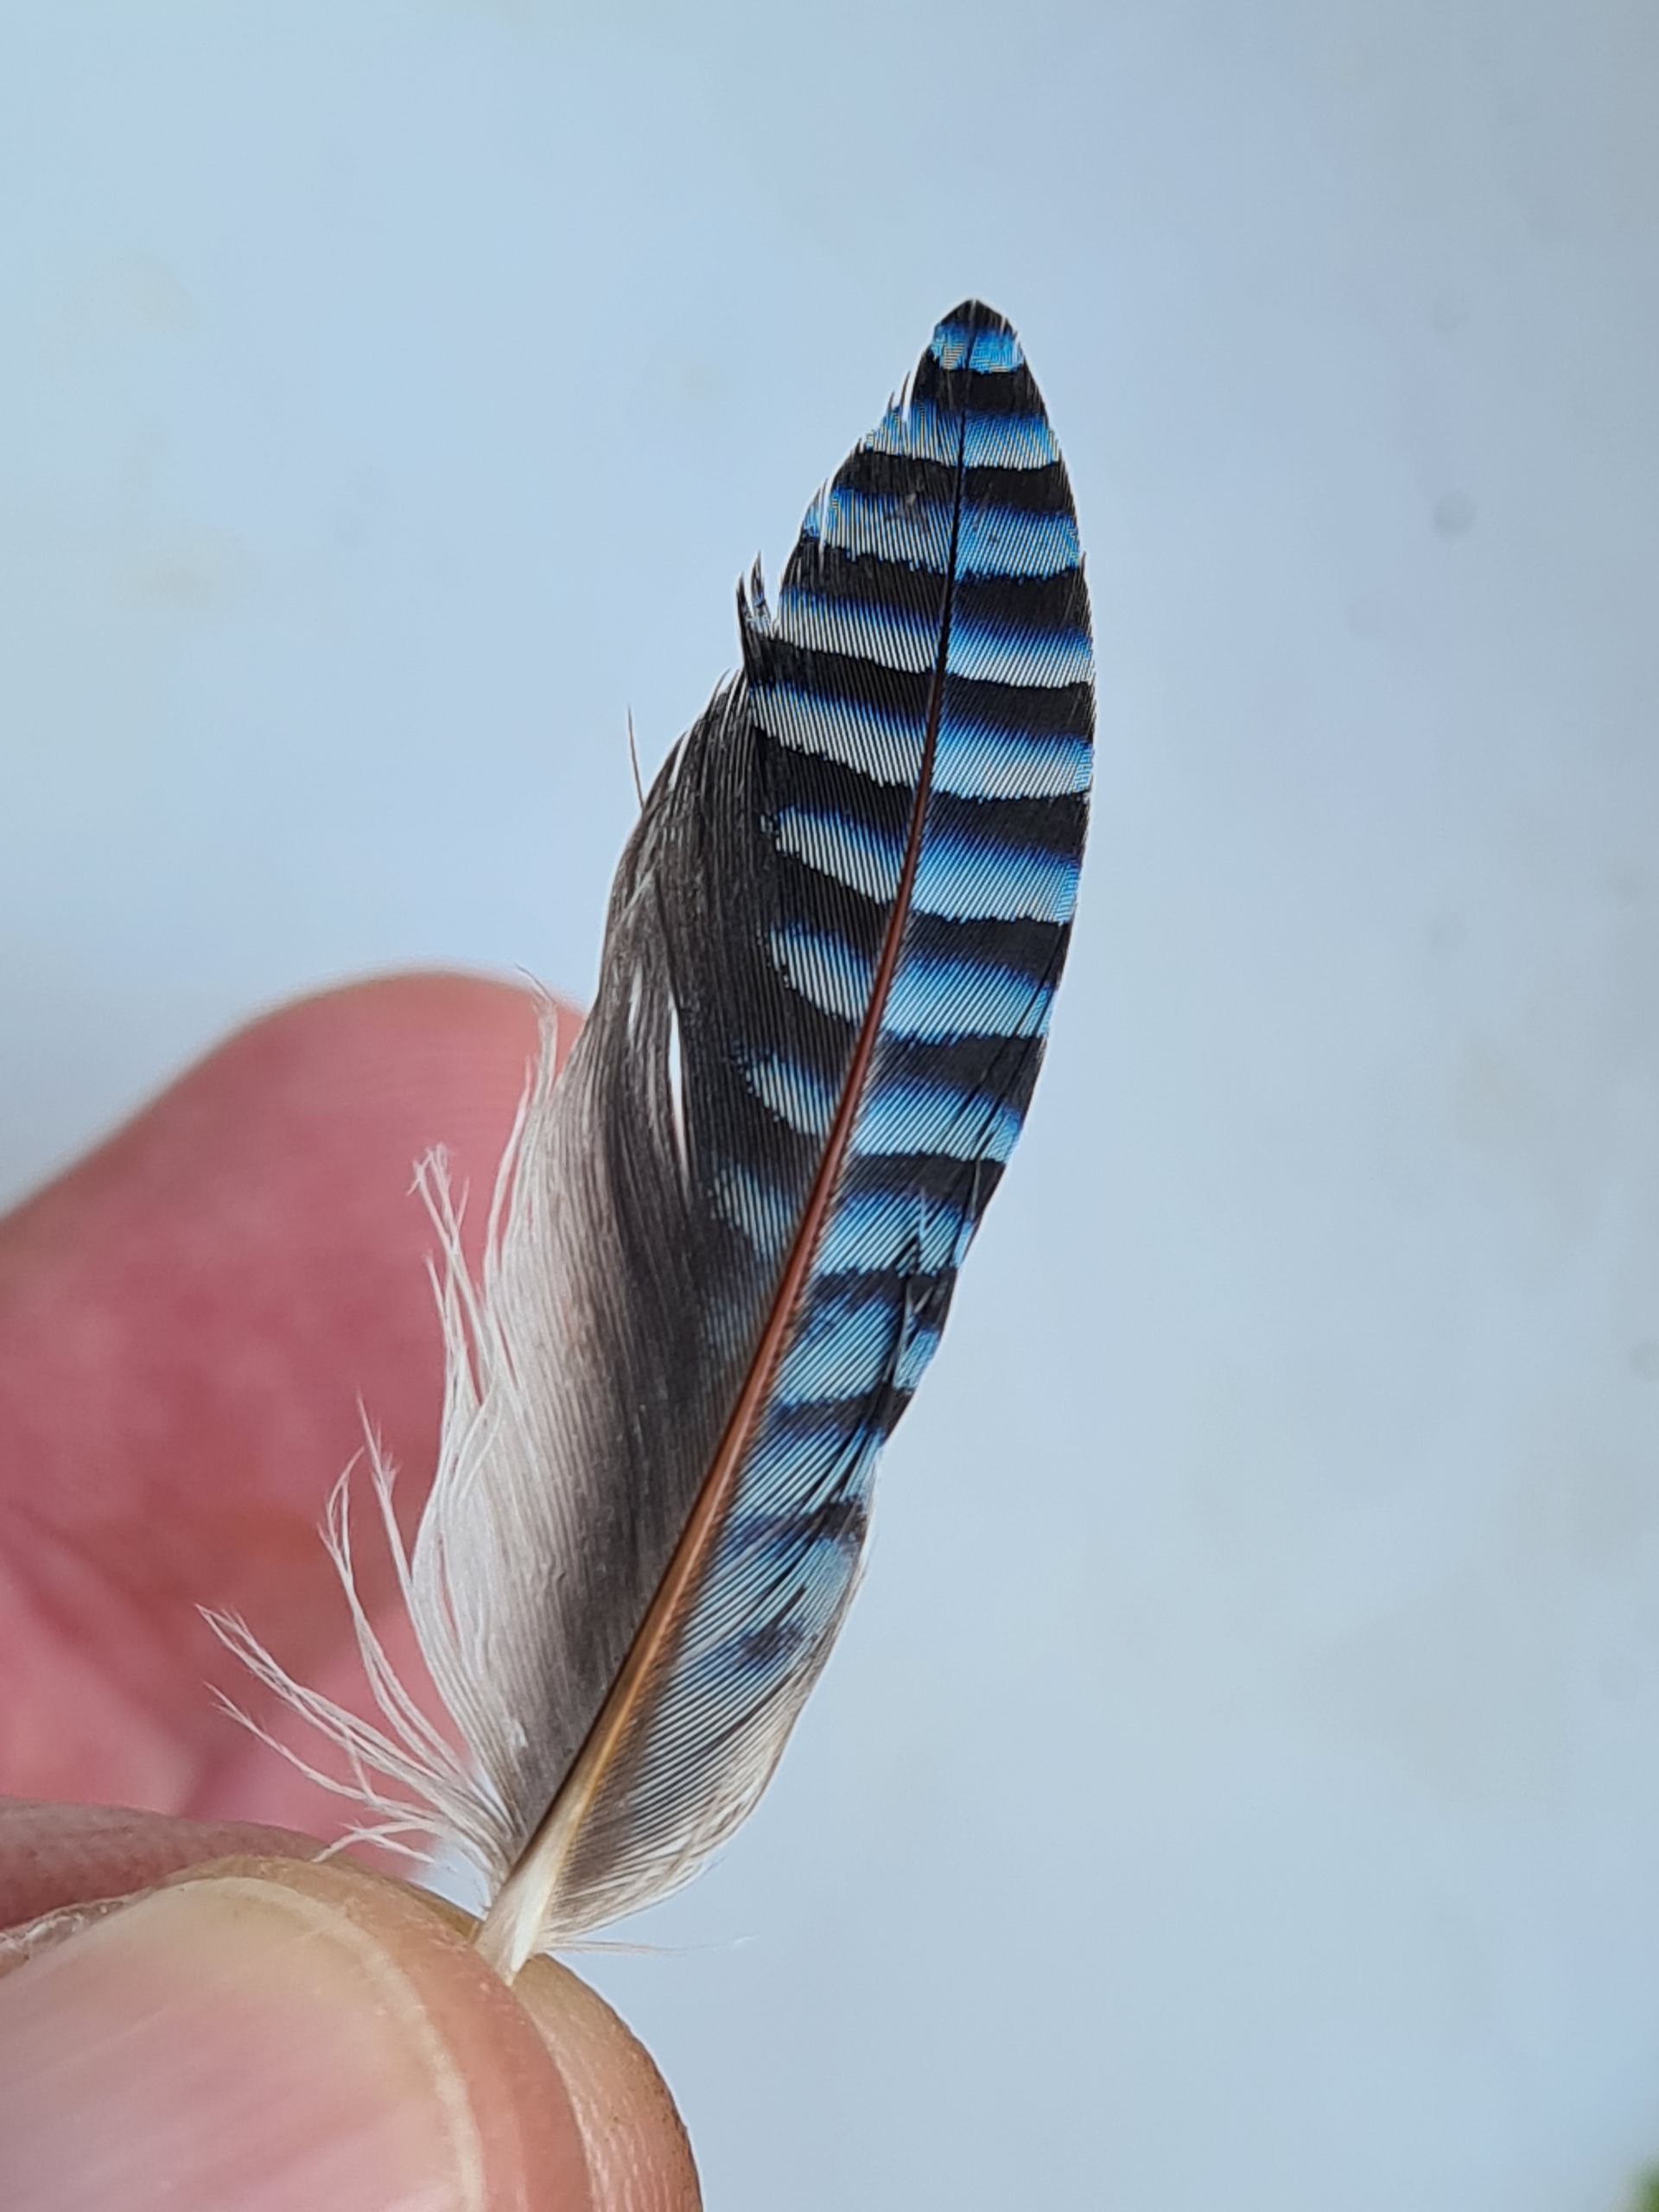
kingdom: Animalia
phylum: Chordata
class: Aves
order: Passeriformes
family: Corvidae
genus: Garrulus
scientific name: Garrulus glandarius
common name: Skovskade
